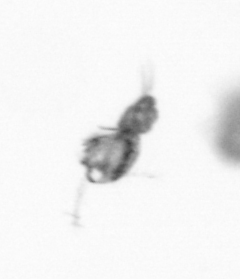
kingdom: Animalia
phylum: Arthropoda
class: Copepoda
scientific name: Copepoda
